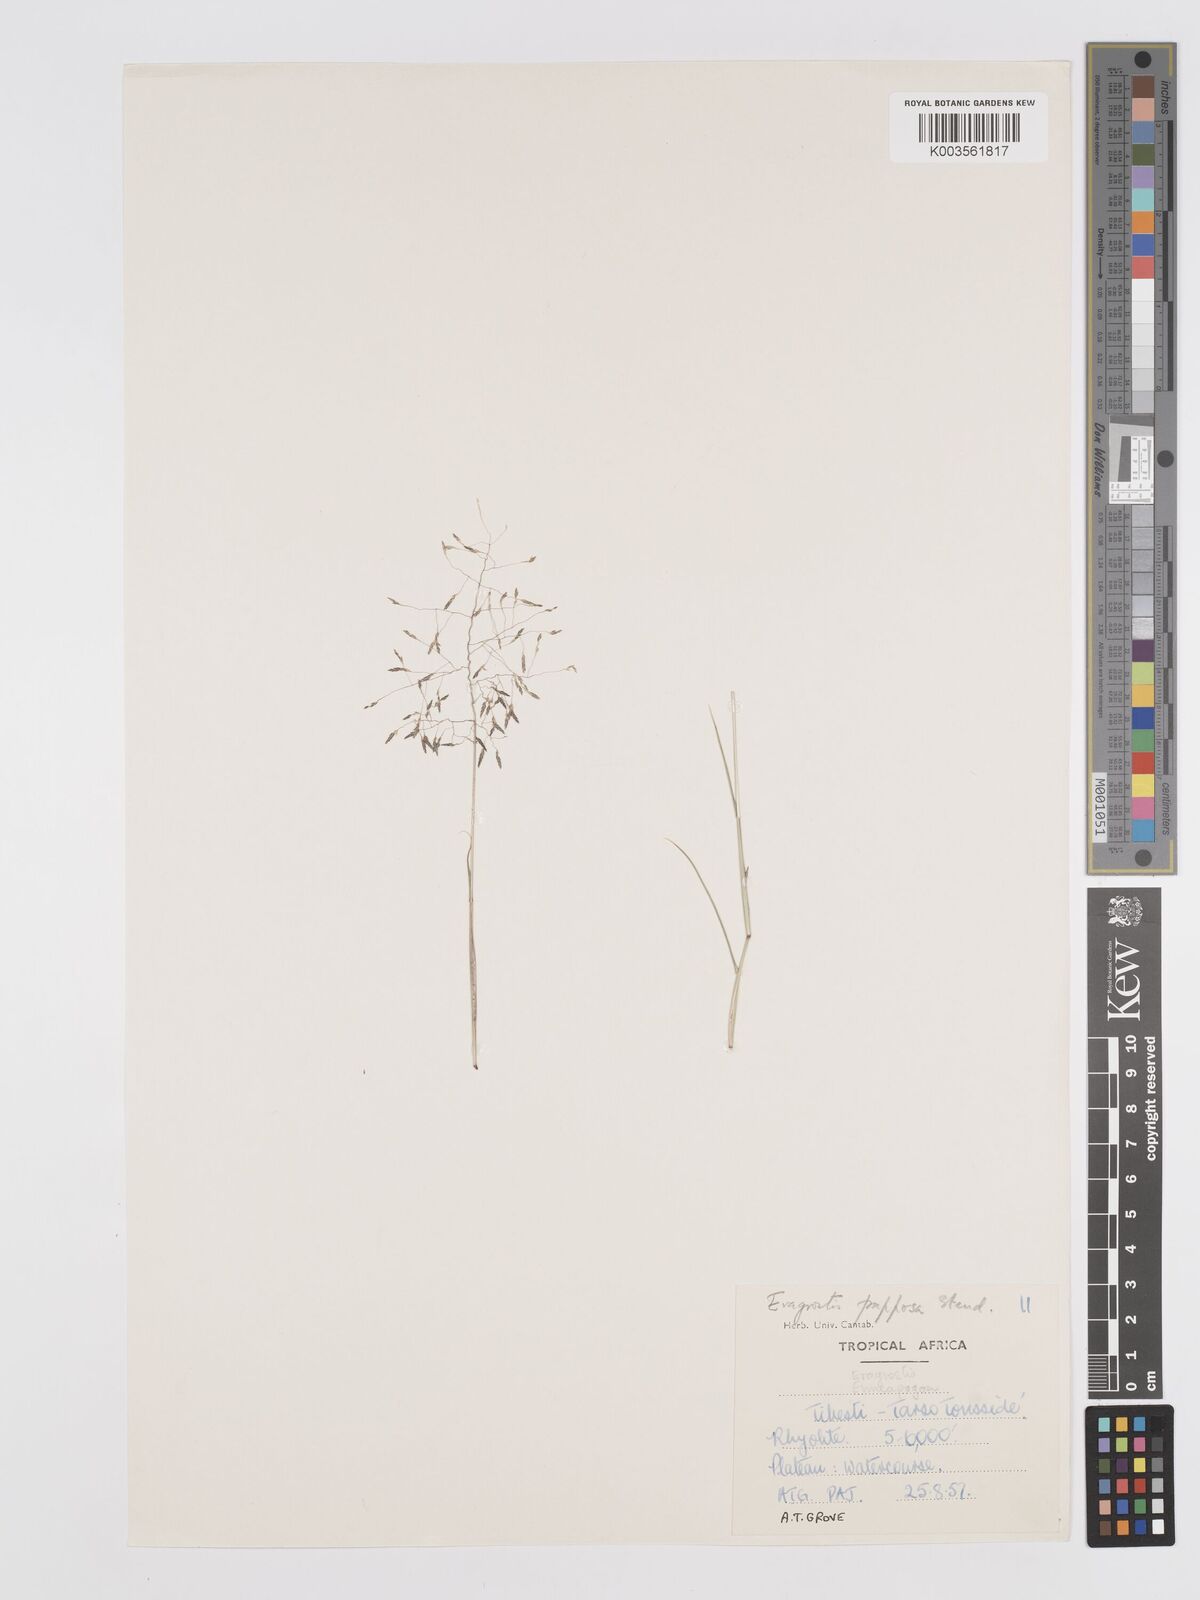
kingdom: Plantae
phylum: Tracheophyta
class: Liliopsida
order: Poales
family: Poaceae
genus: Eragrostis
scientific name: Eragrostis papposa
